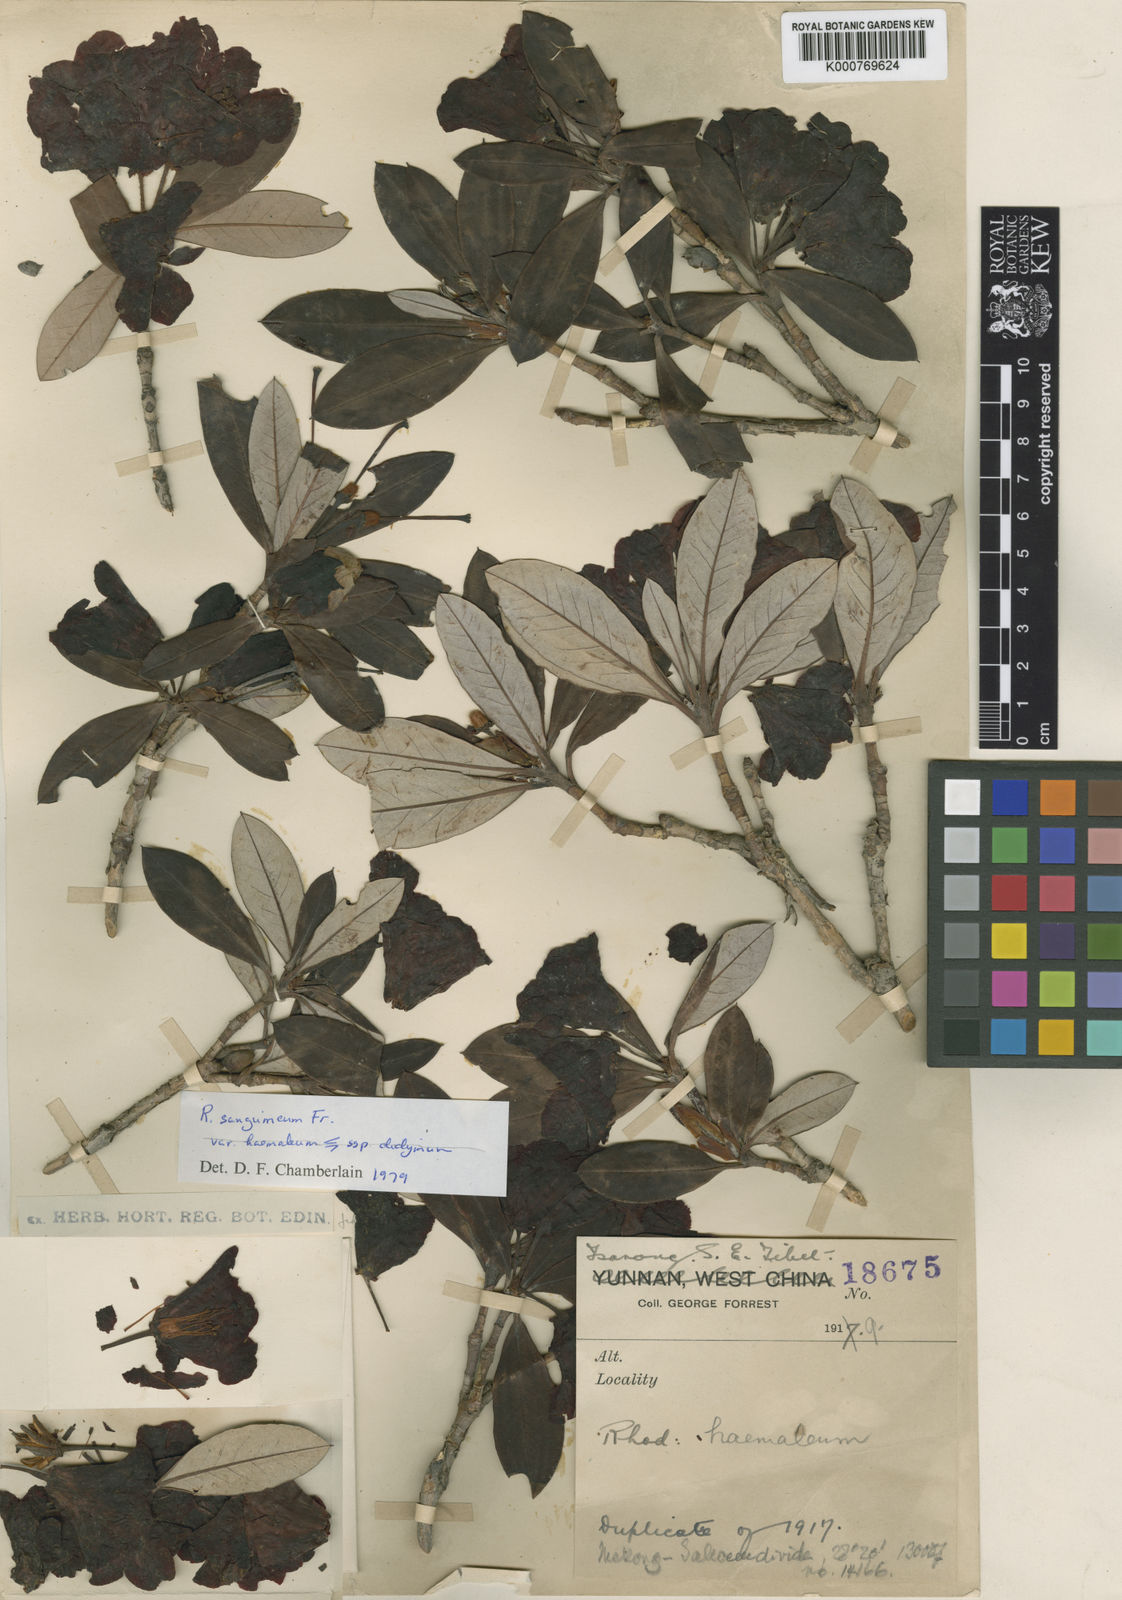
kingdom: Plantae
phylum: Tracheophyta
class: Magnoliopsida
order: Ericales
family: Ericaceae
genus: Rhododendron
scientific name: Rhododendron sanguineum
